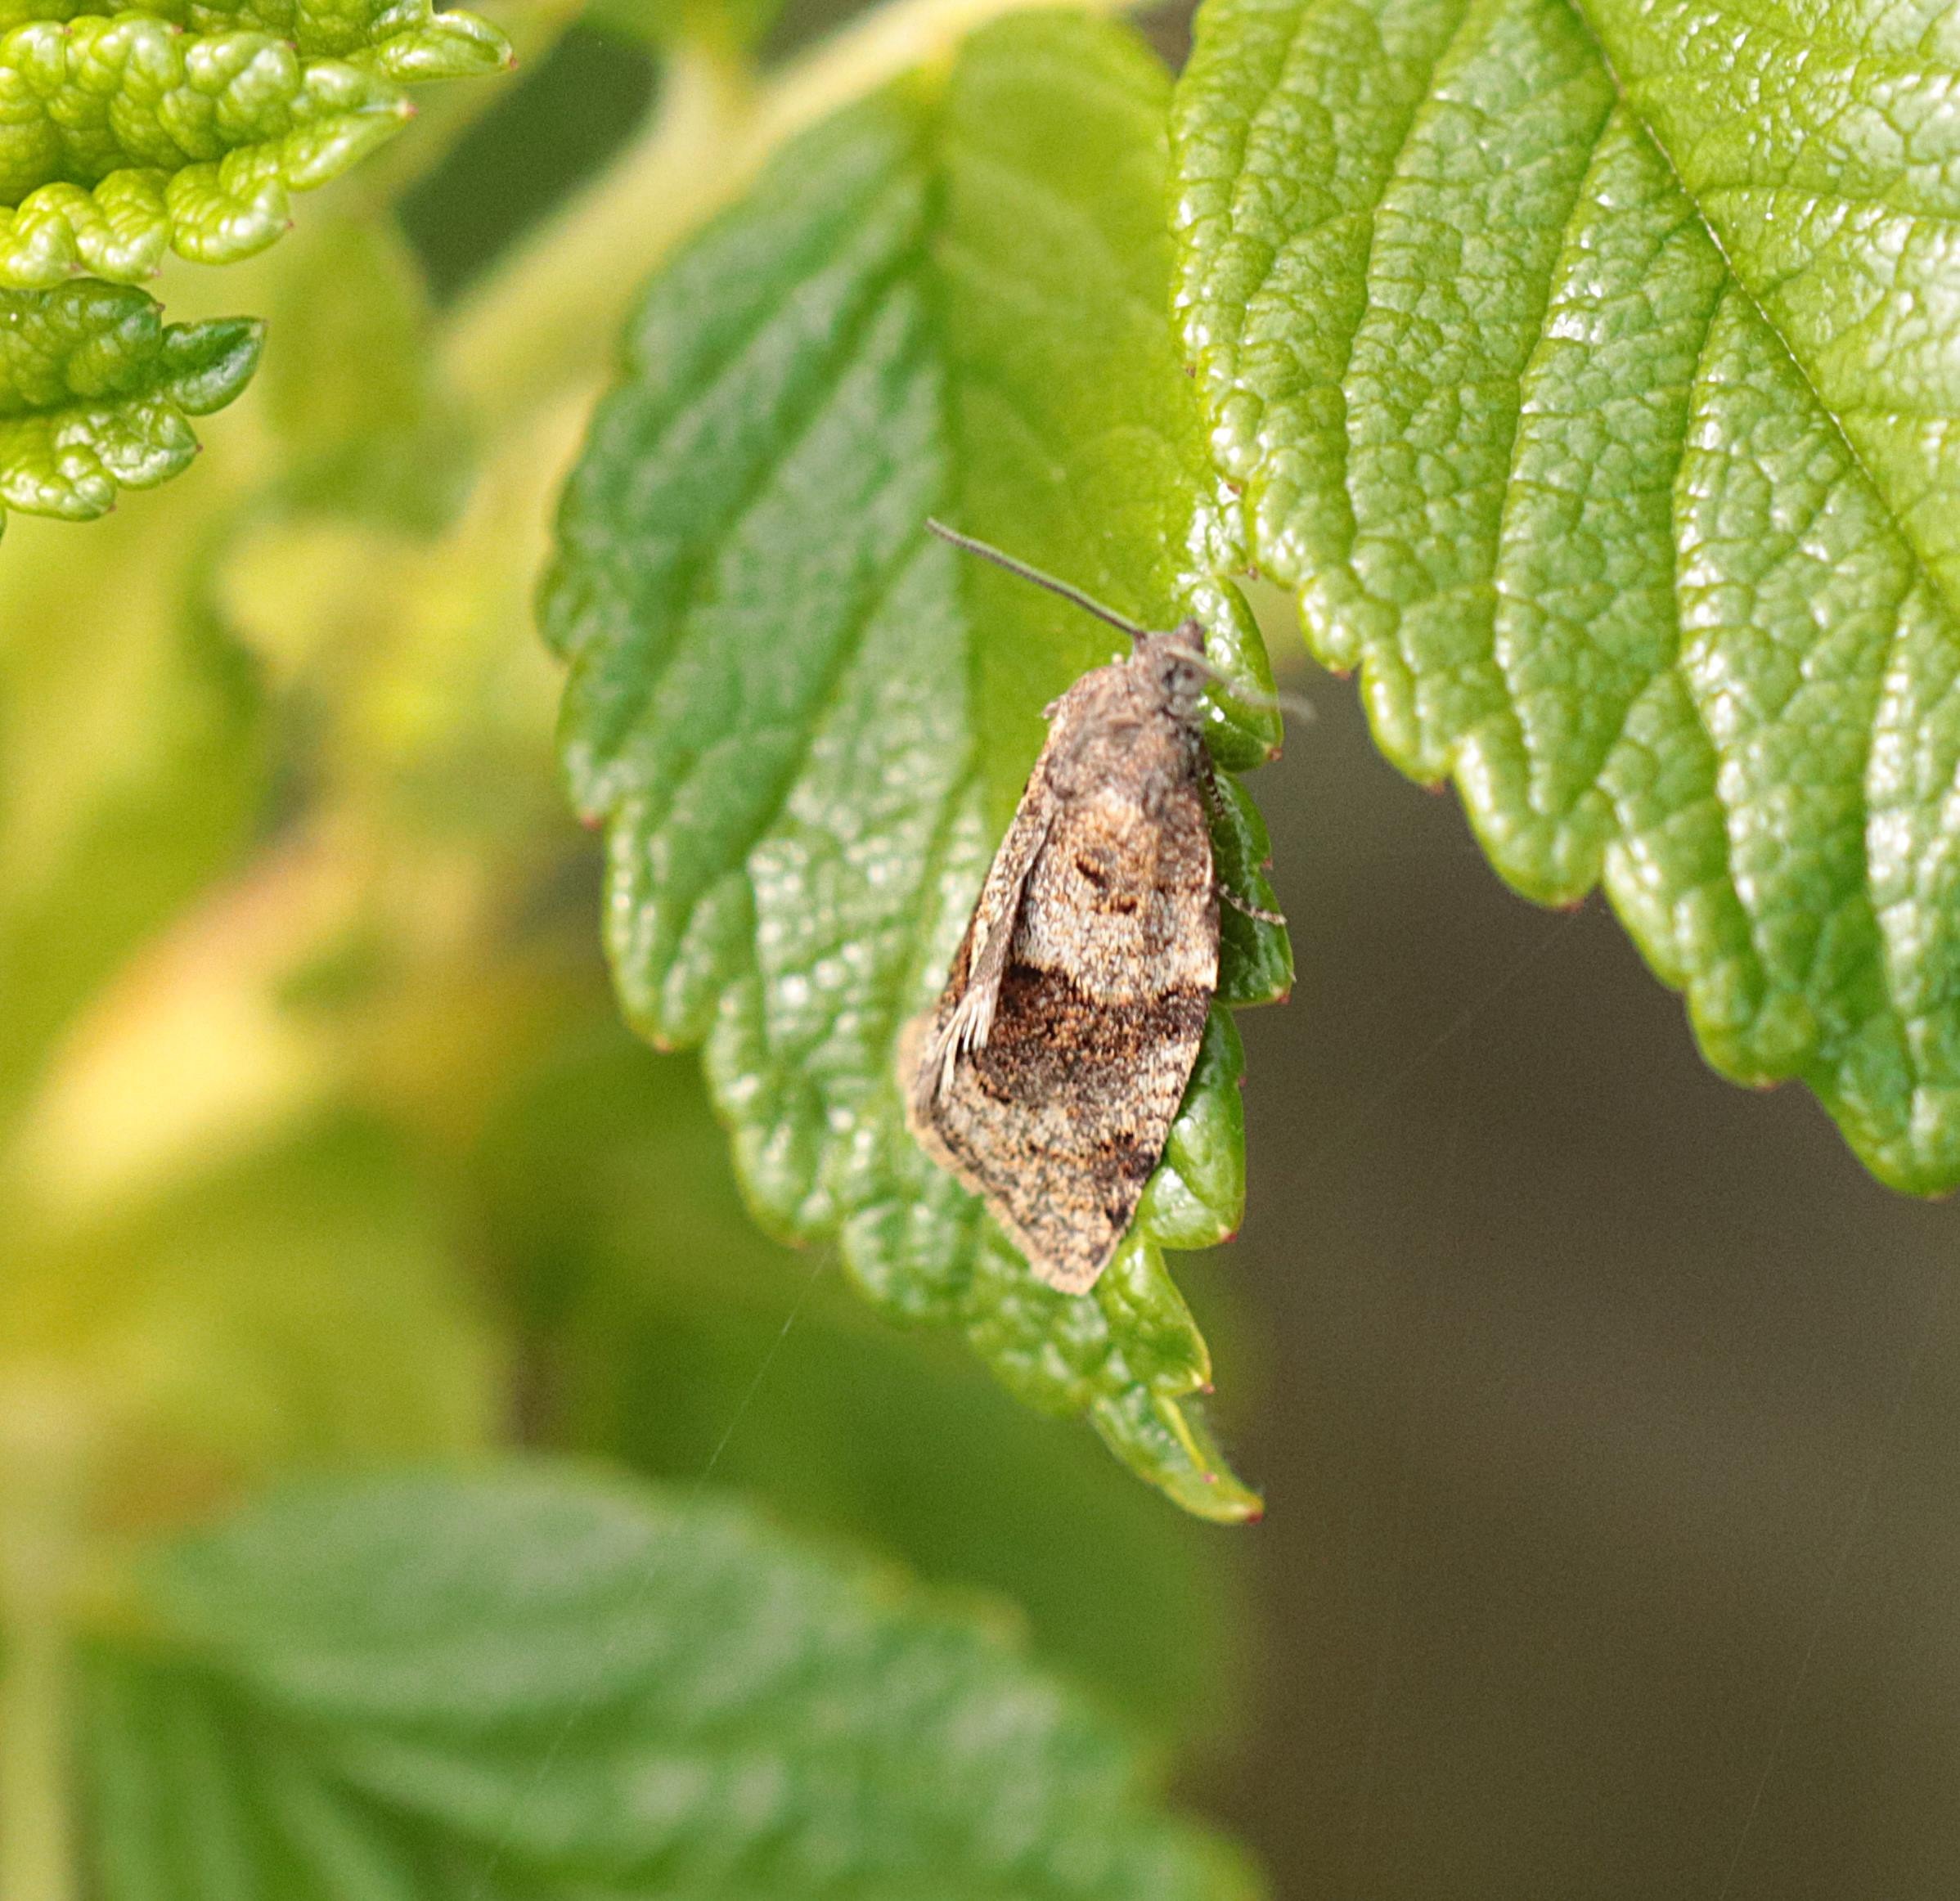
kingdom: Animalia
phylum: Arthropoda
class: Insecta
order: Lepidoptera
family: Tortricidae
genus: Syndemis
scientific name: Syndemis musculana
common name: Høstvikler
